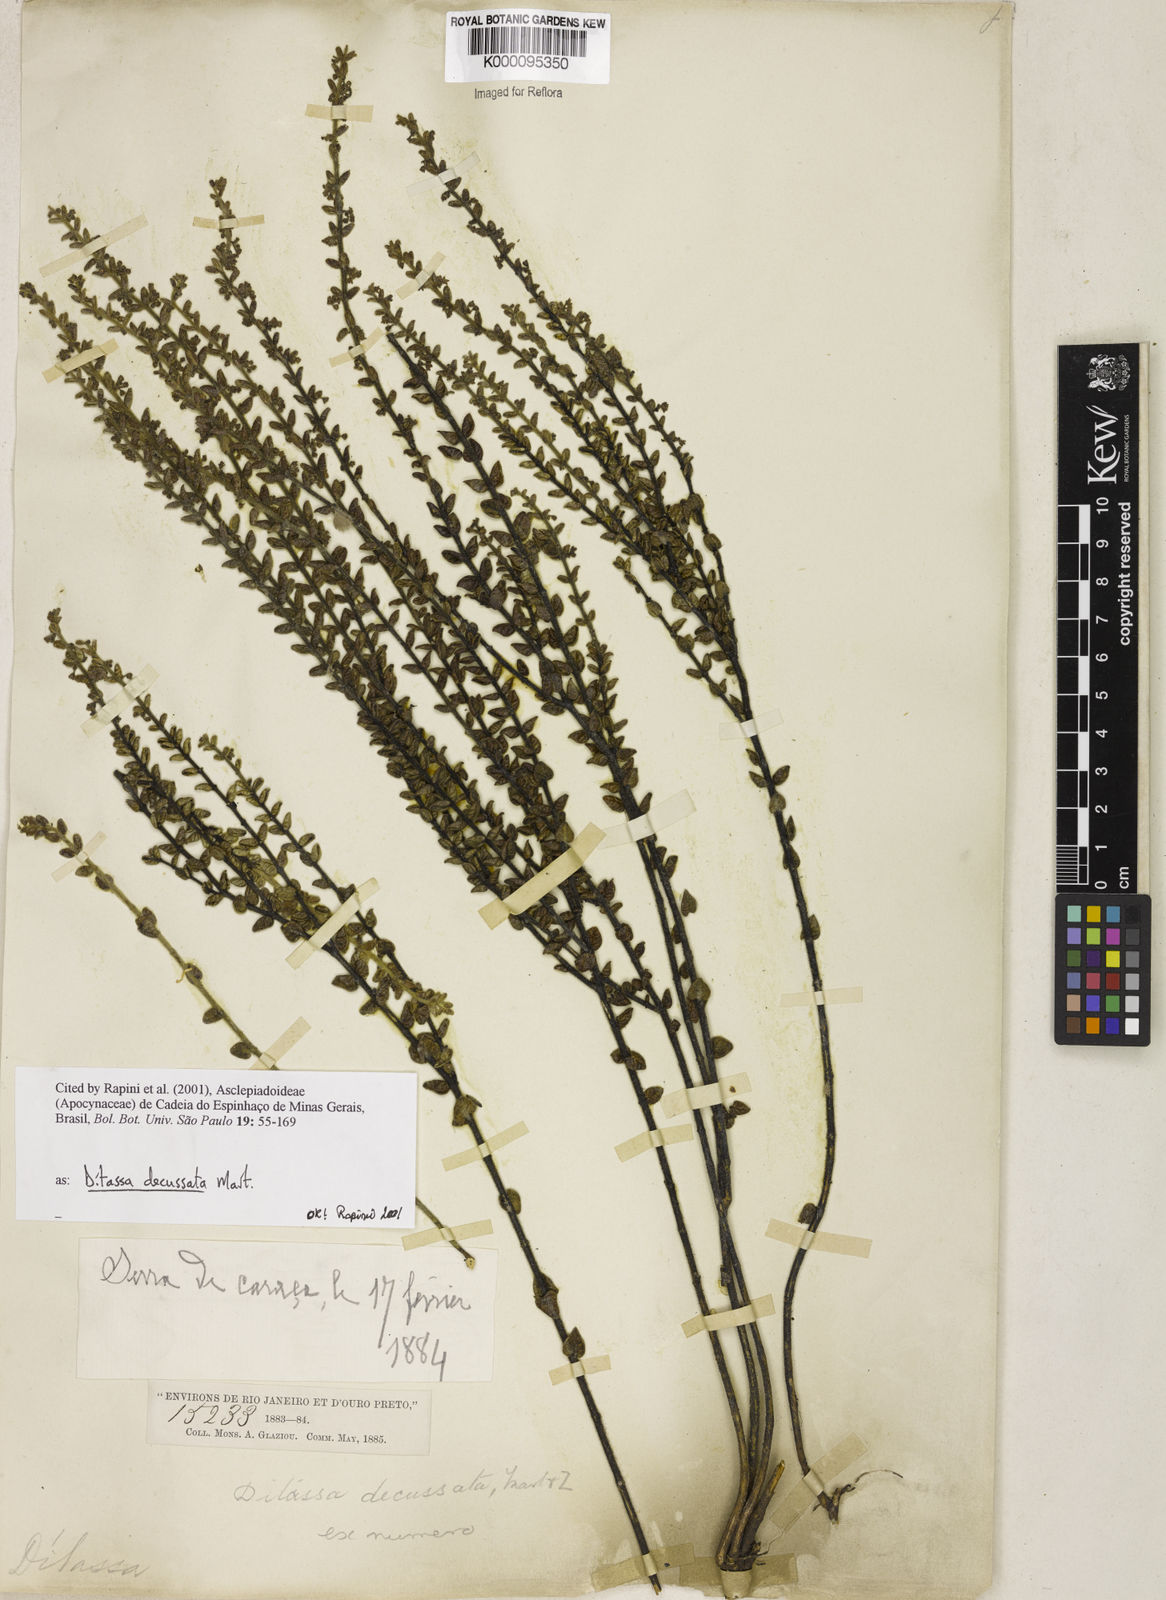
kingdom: Plantae
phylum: Tracheophyta
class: Magnoliopsida
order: Gentianales
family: Apocynaceae
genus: Minaria
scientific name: Minaria decussata
